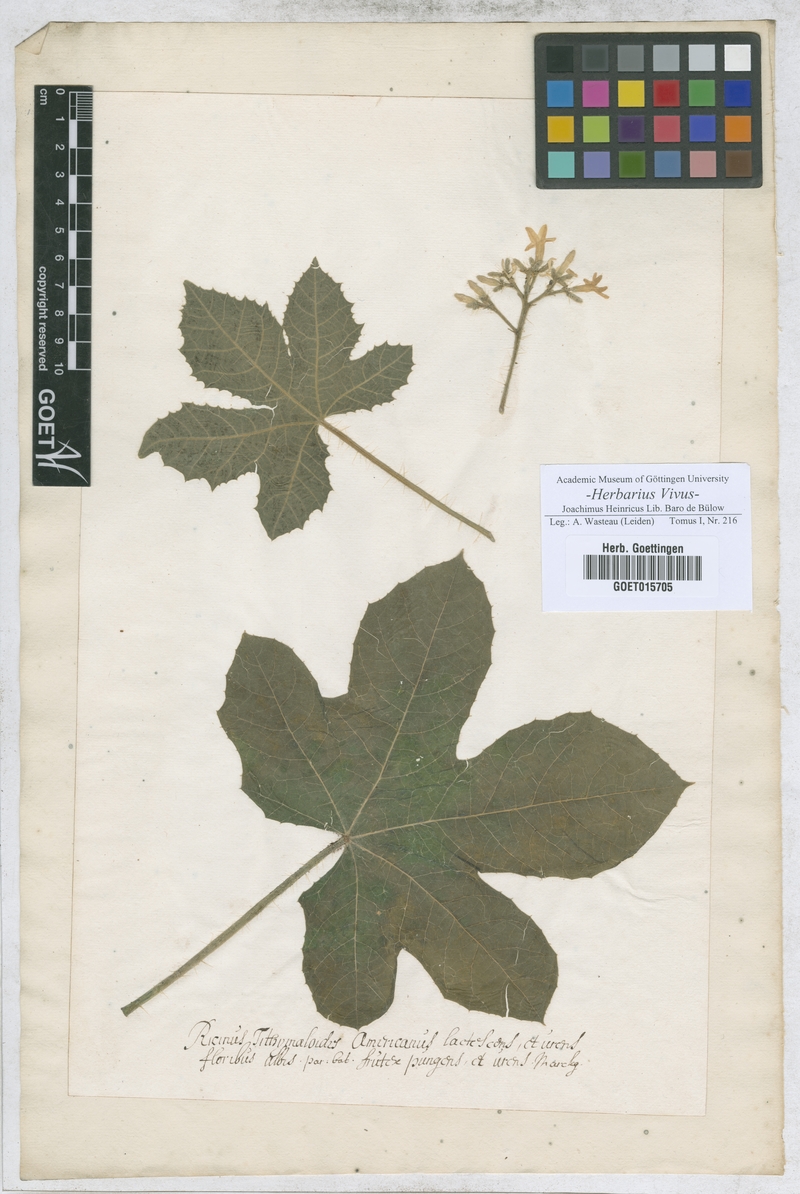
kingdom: Plantae
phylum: Tracheophyta
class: Magnoliopsida
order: Malpighiales
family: Euphorbiaceae
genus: Cnidoscolus
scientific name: Cnidoscolus urens
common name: Bull-nettle
